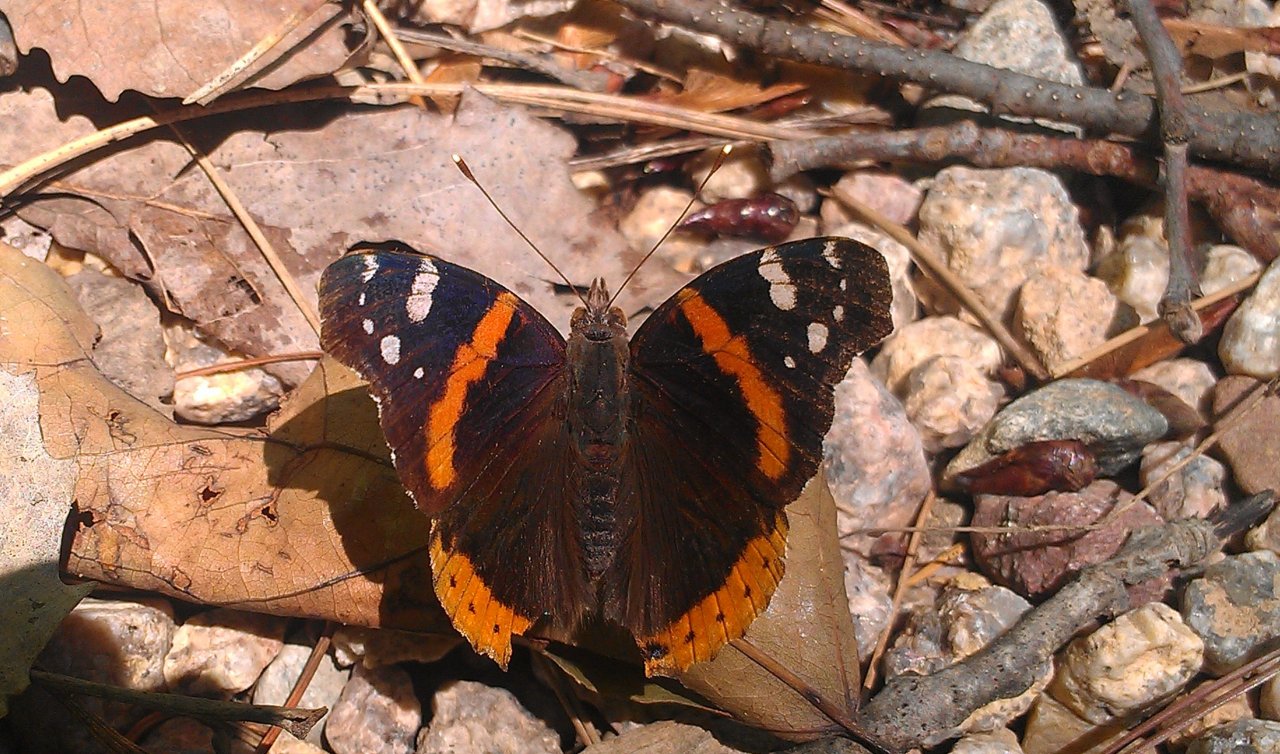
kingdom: Animalia
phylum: Arthropoda
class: Insecta
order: Lepidoptera
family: Nymphalidae
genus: Vanessa
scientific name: Vanessa atalanta
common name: Red Admiral
